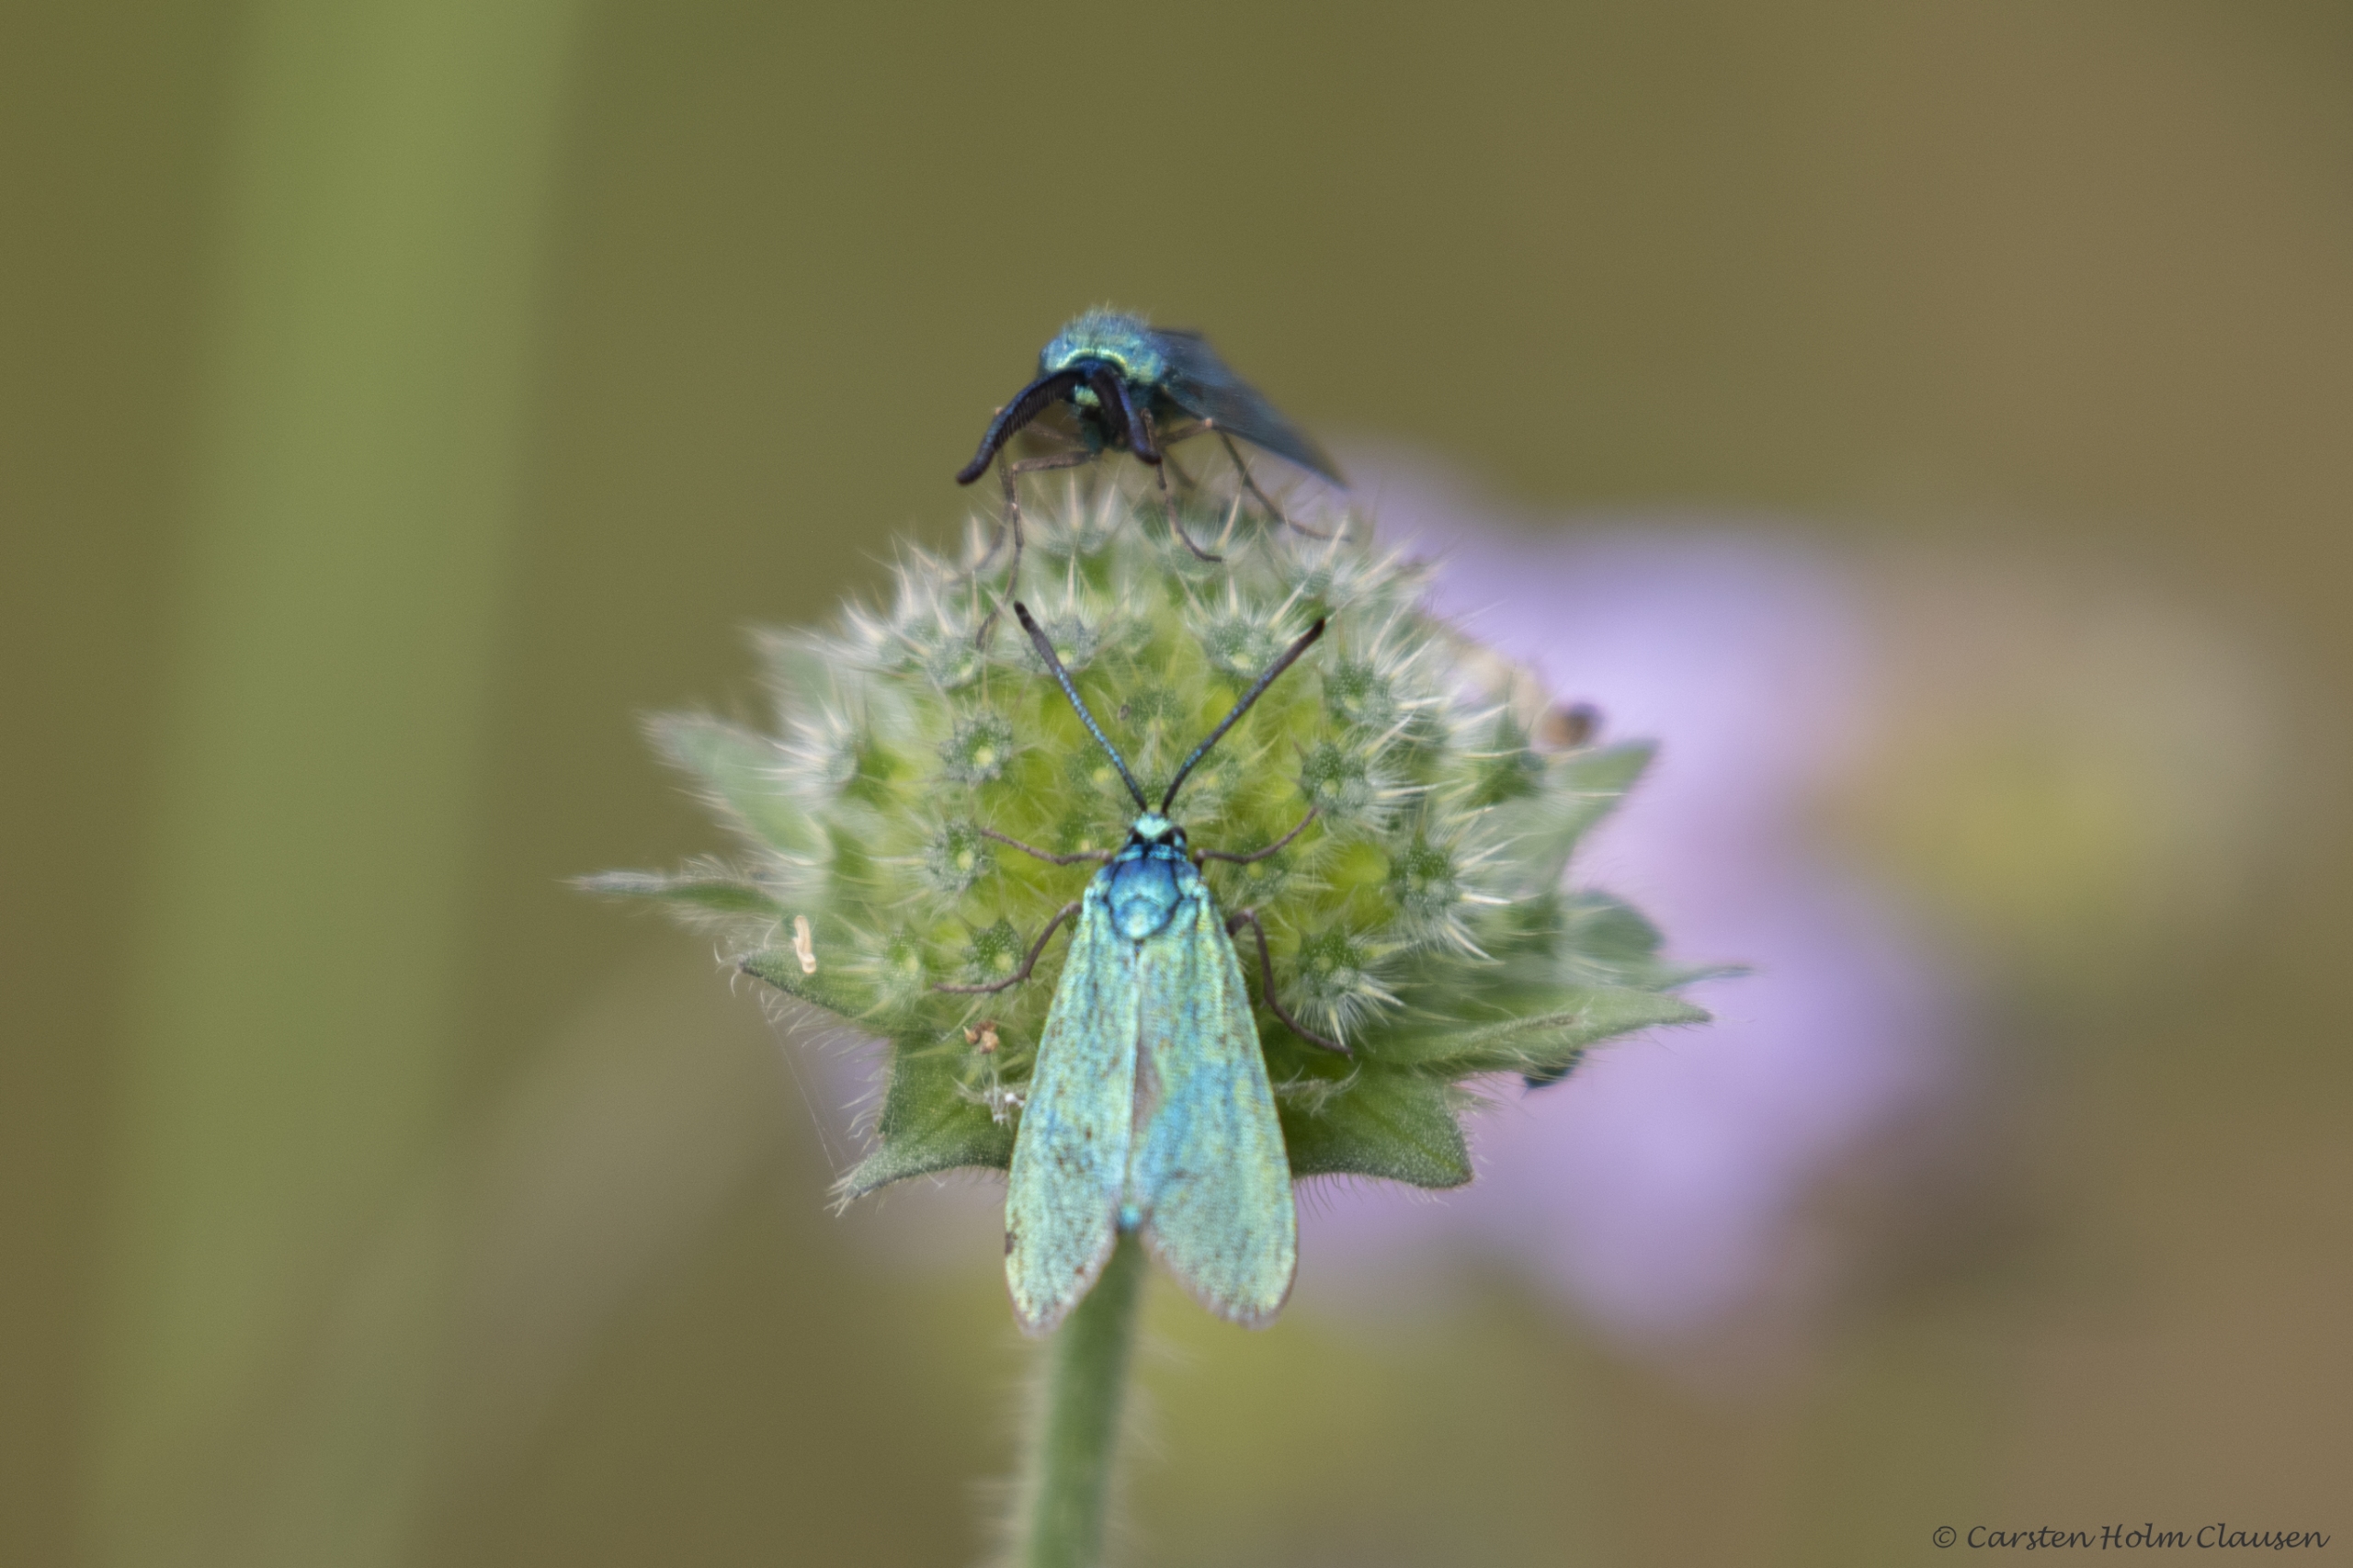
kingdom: Animalia
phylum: Arthropoda
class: Insecta
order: Lepidoptera
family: Zygaenidae
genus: Adscita
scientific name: Adscita statices
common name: Metalvinge
